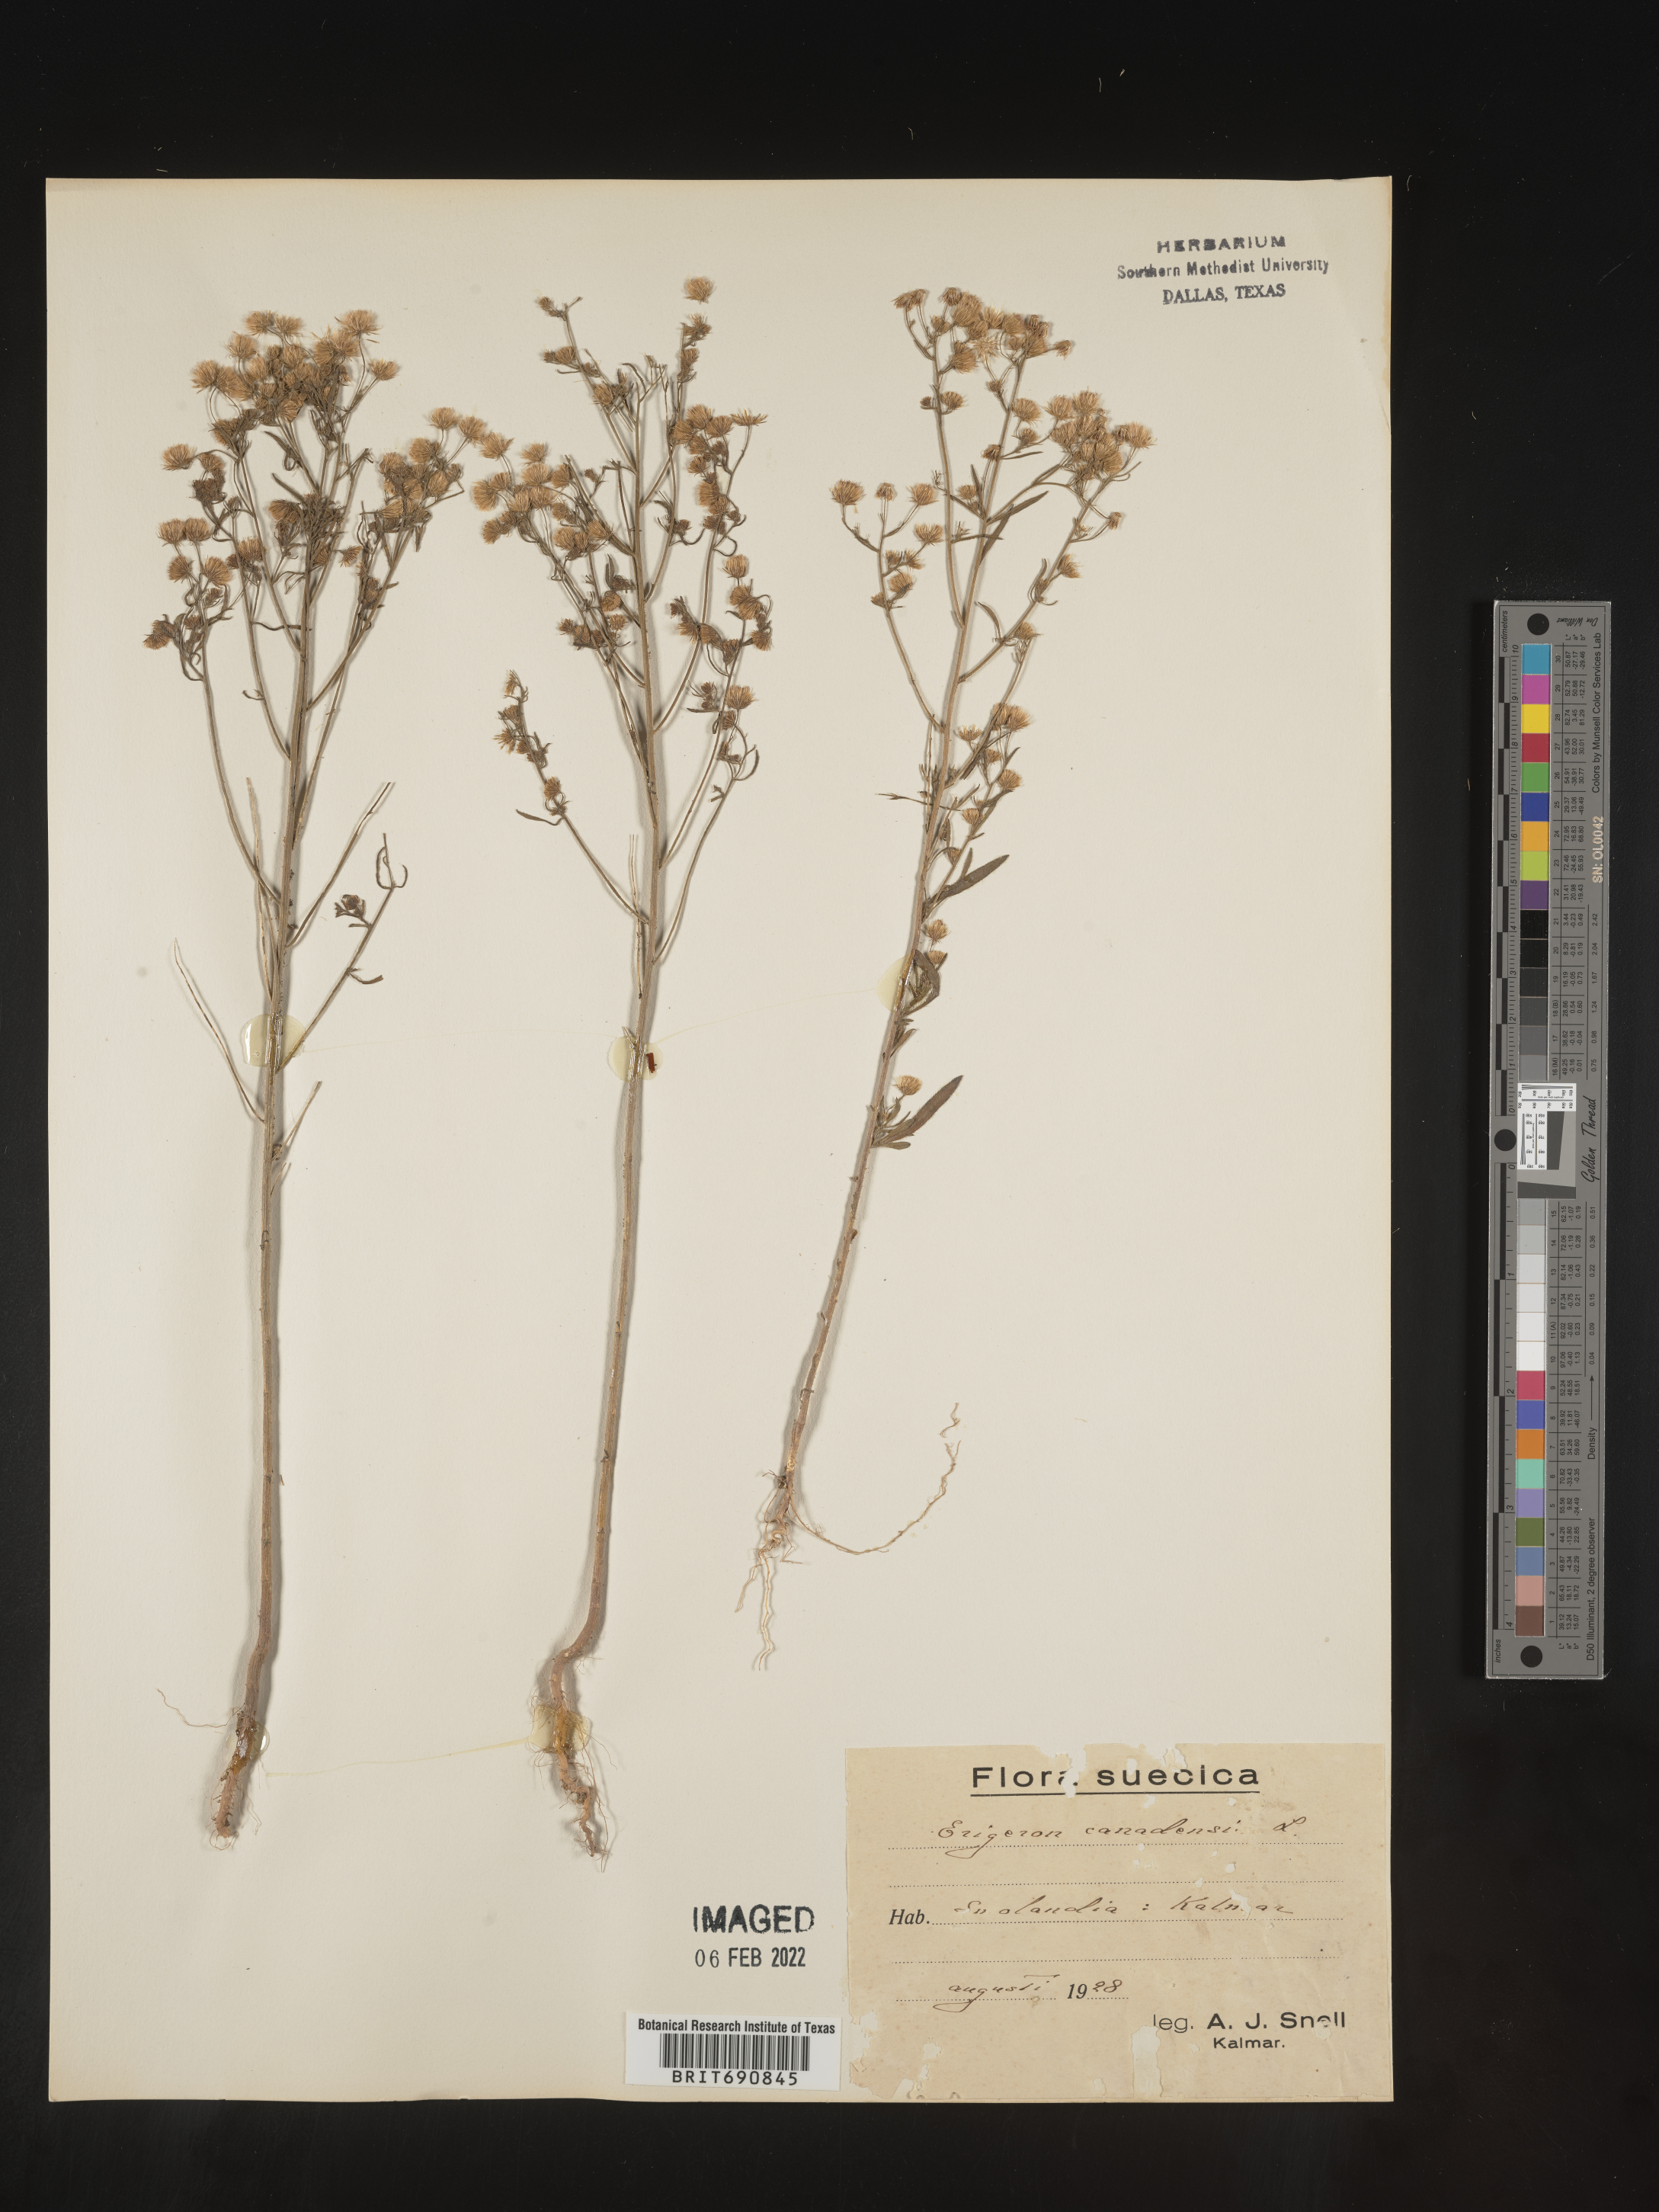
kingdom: Plantae
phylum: Tracheophyta
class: Magnoliopsida
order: Asterales
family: Asteraceae
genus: Conyza
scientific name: Conyza
